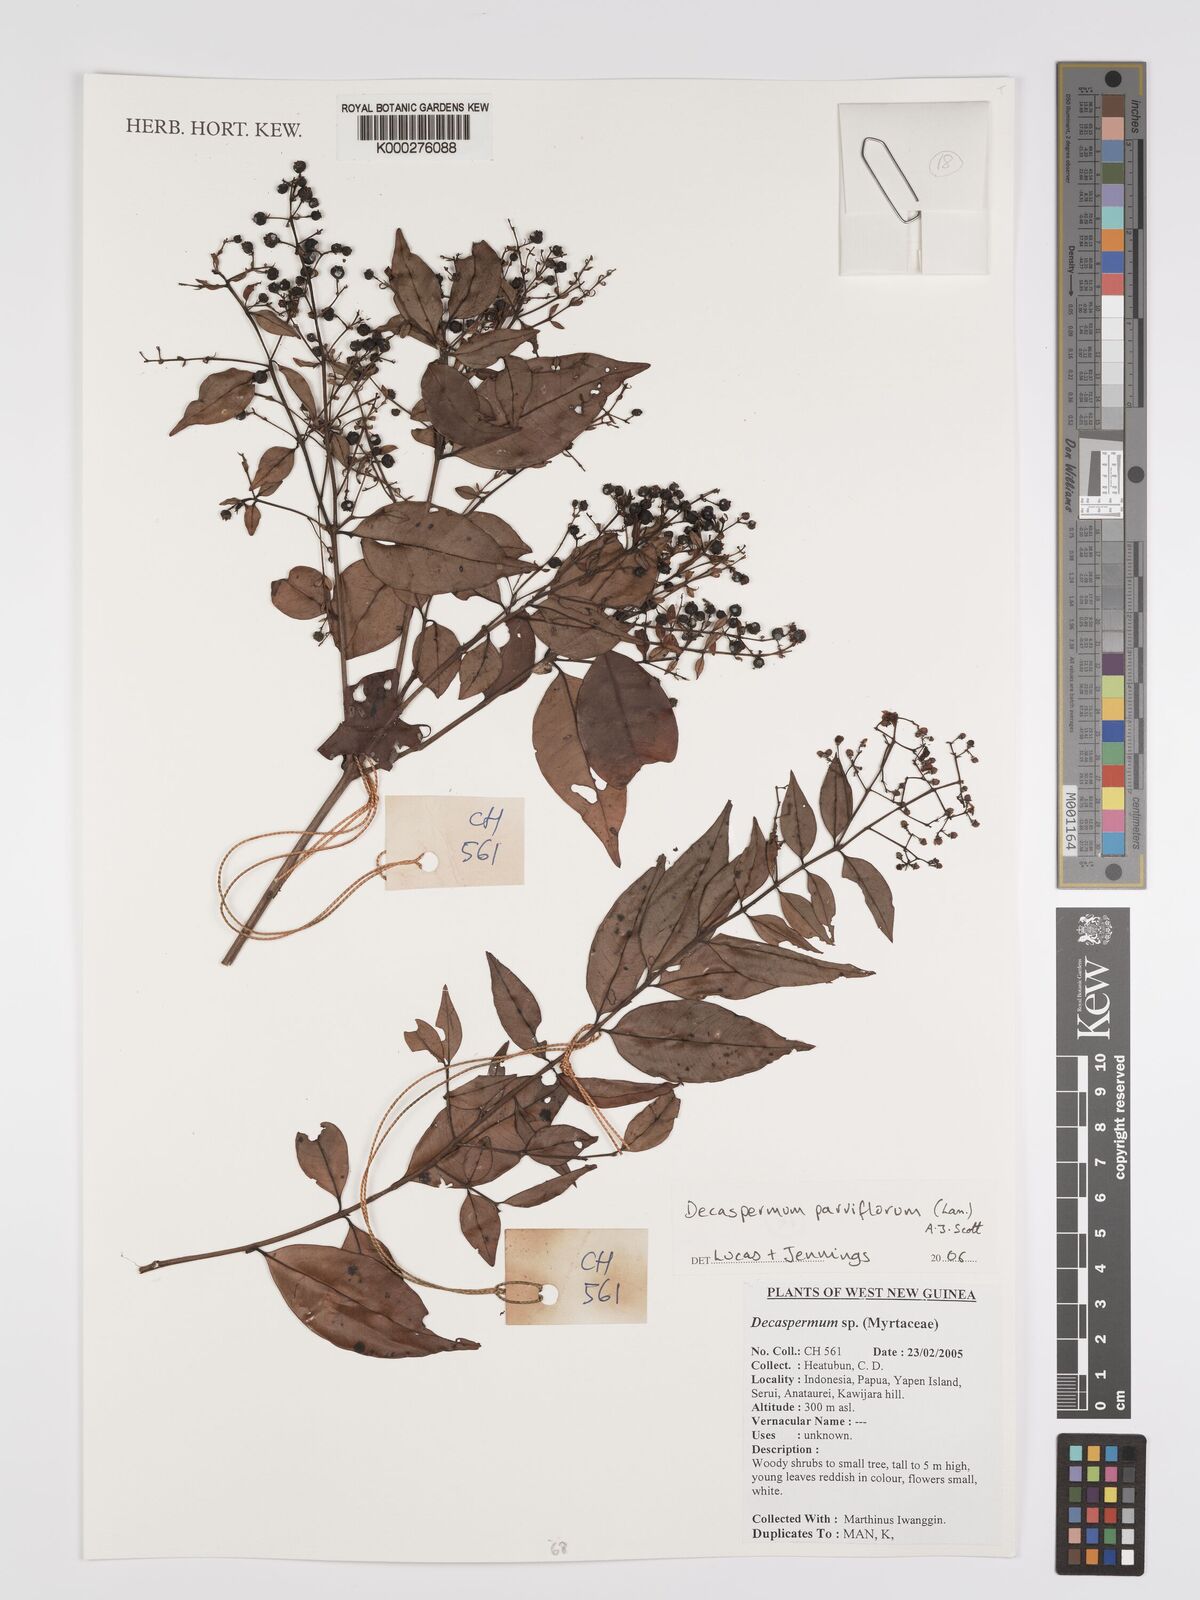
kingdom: Plantae
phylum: Tracheophyta
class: Magnoliopsida
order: Myrtales
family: Myrtaceae
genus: Decaspermum
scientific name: Decaspermum parviflorum
